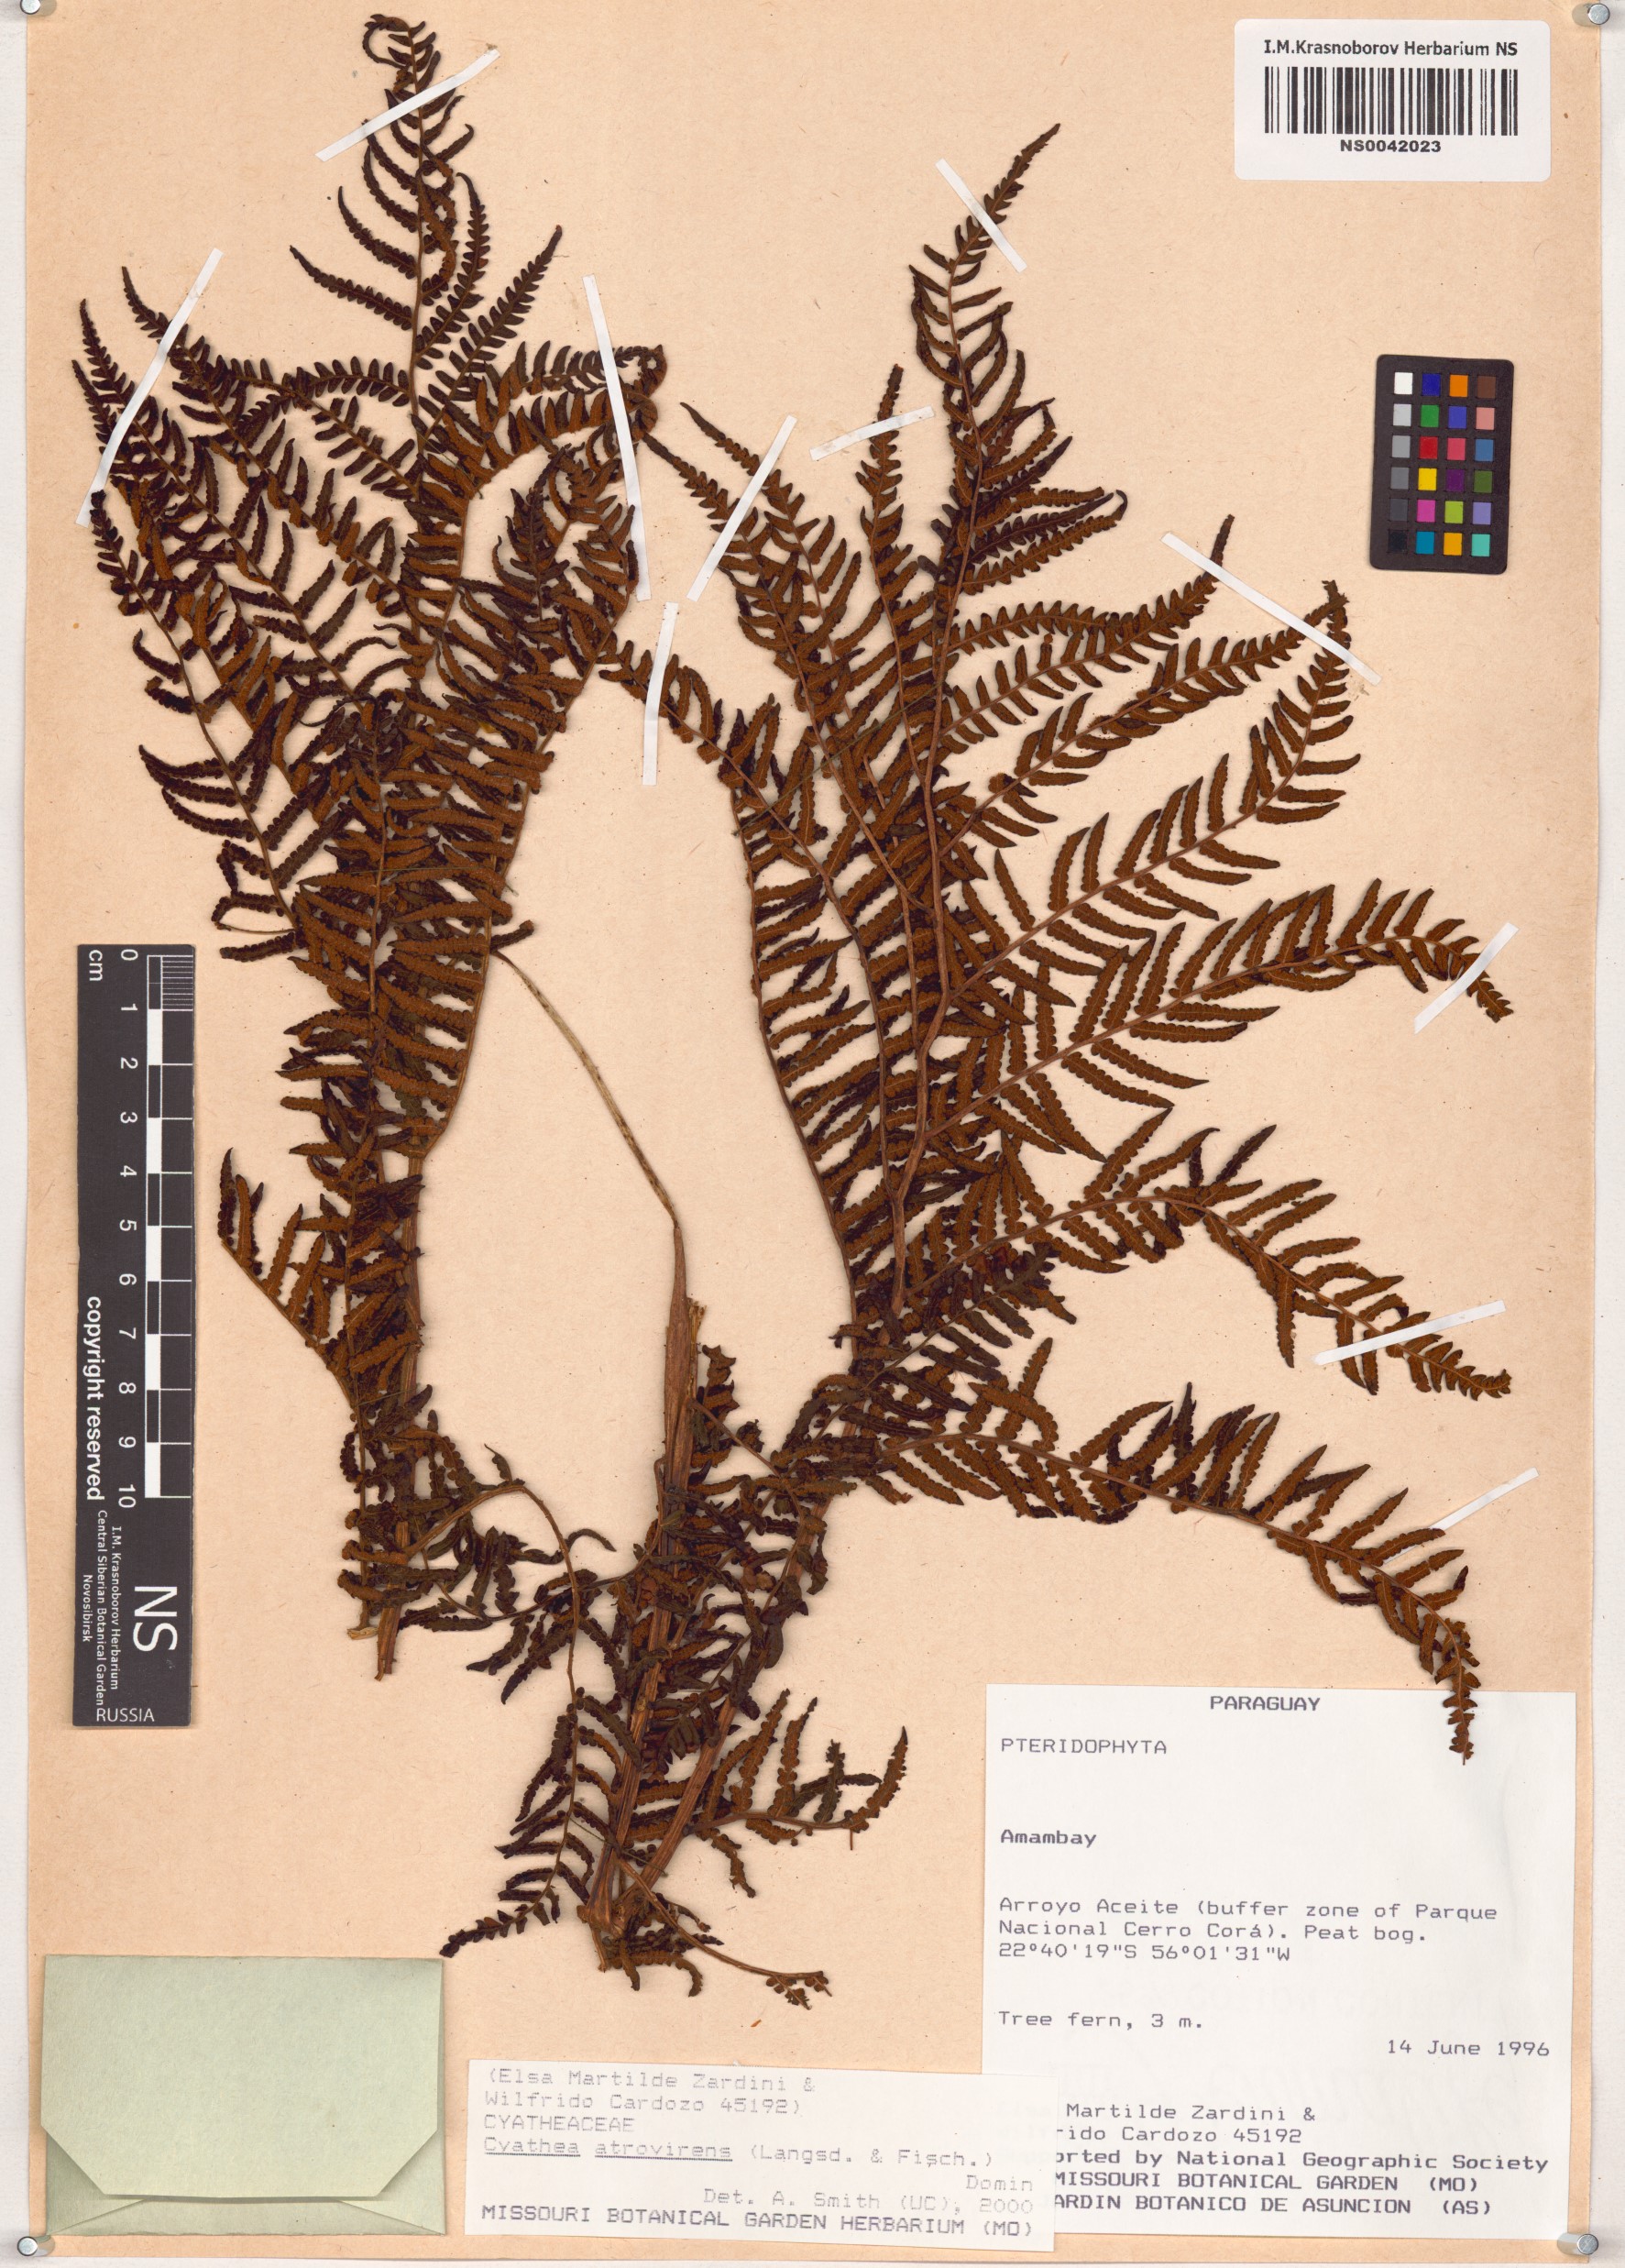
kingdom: Plantae
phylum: Tracheophyta
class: Polypodiopsida
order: Cyatheales
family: Cyatheaceae
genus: Cyathea
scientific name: Cyathea atrovirens
